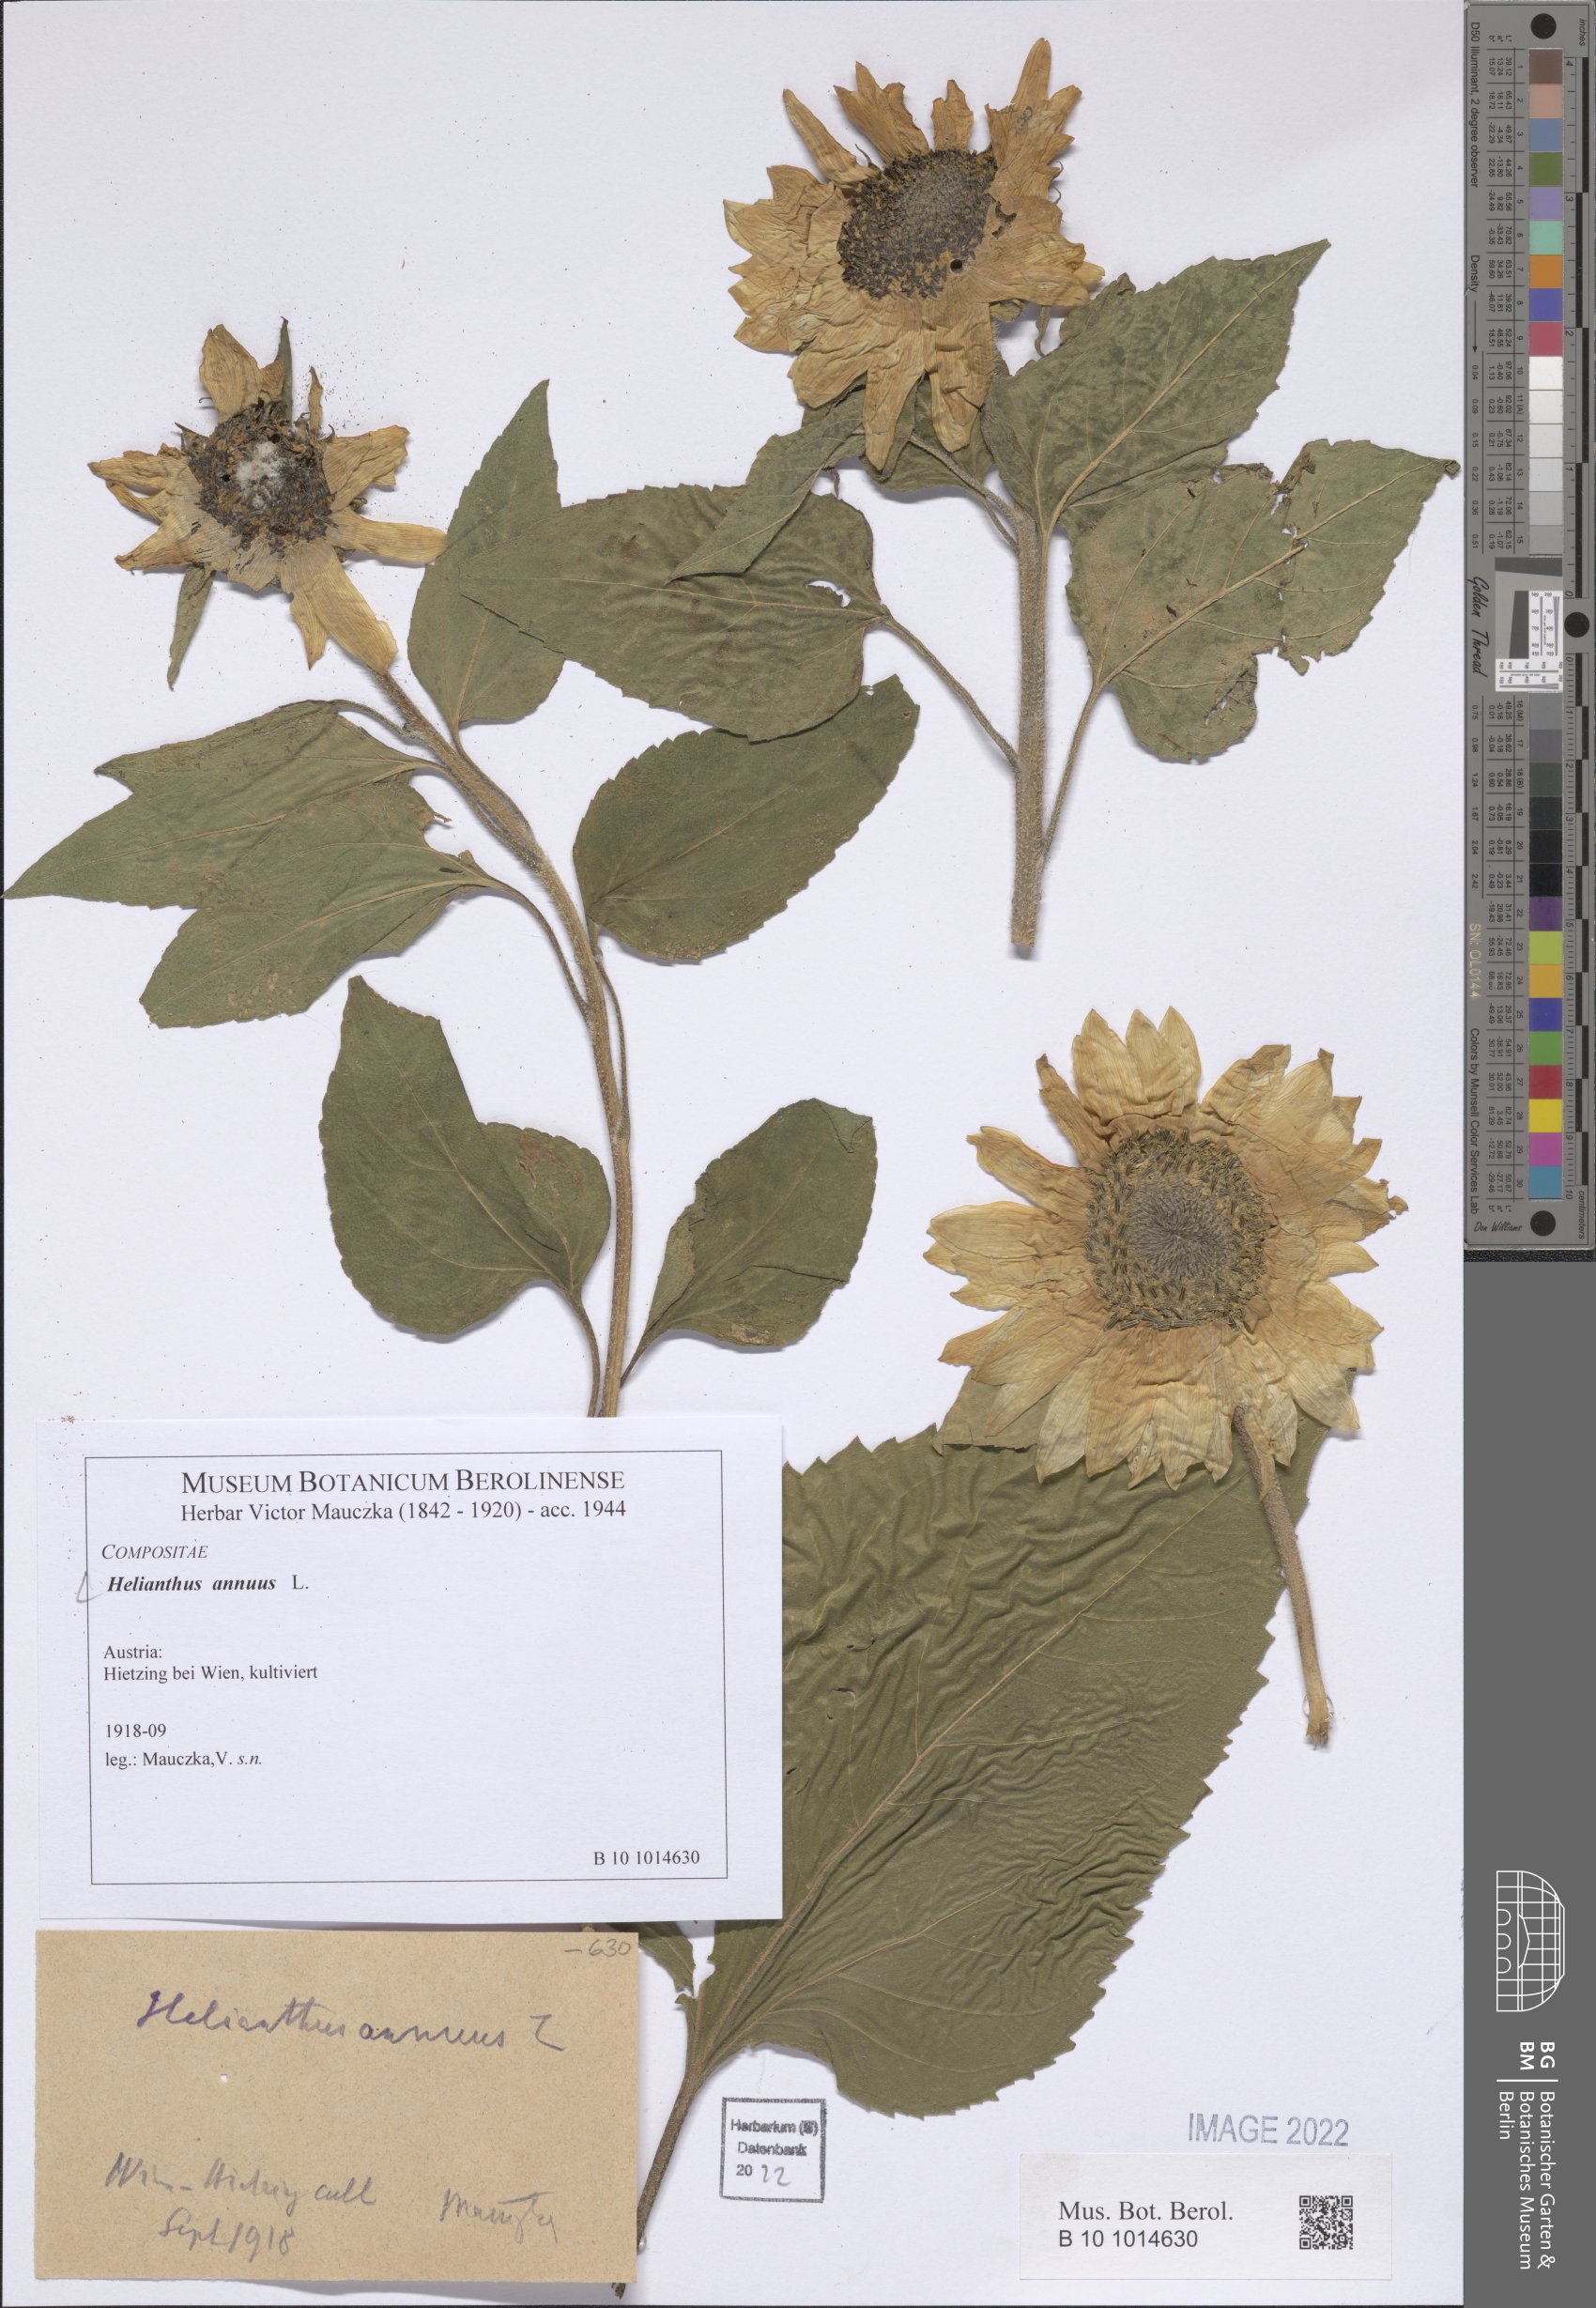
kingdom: Plantae
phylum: Tracheophyta
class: Magnoliopsida
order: Asterales
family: Asteraceae
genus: Helianthus
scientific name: Helianthus annuus
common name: Sunflower
